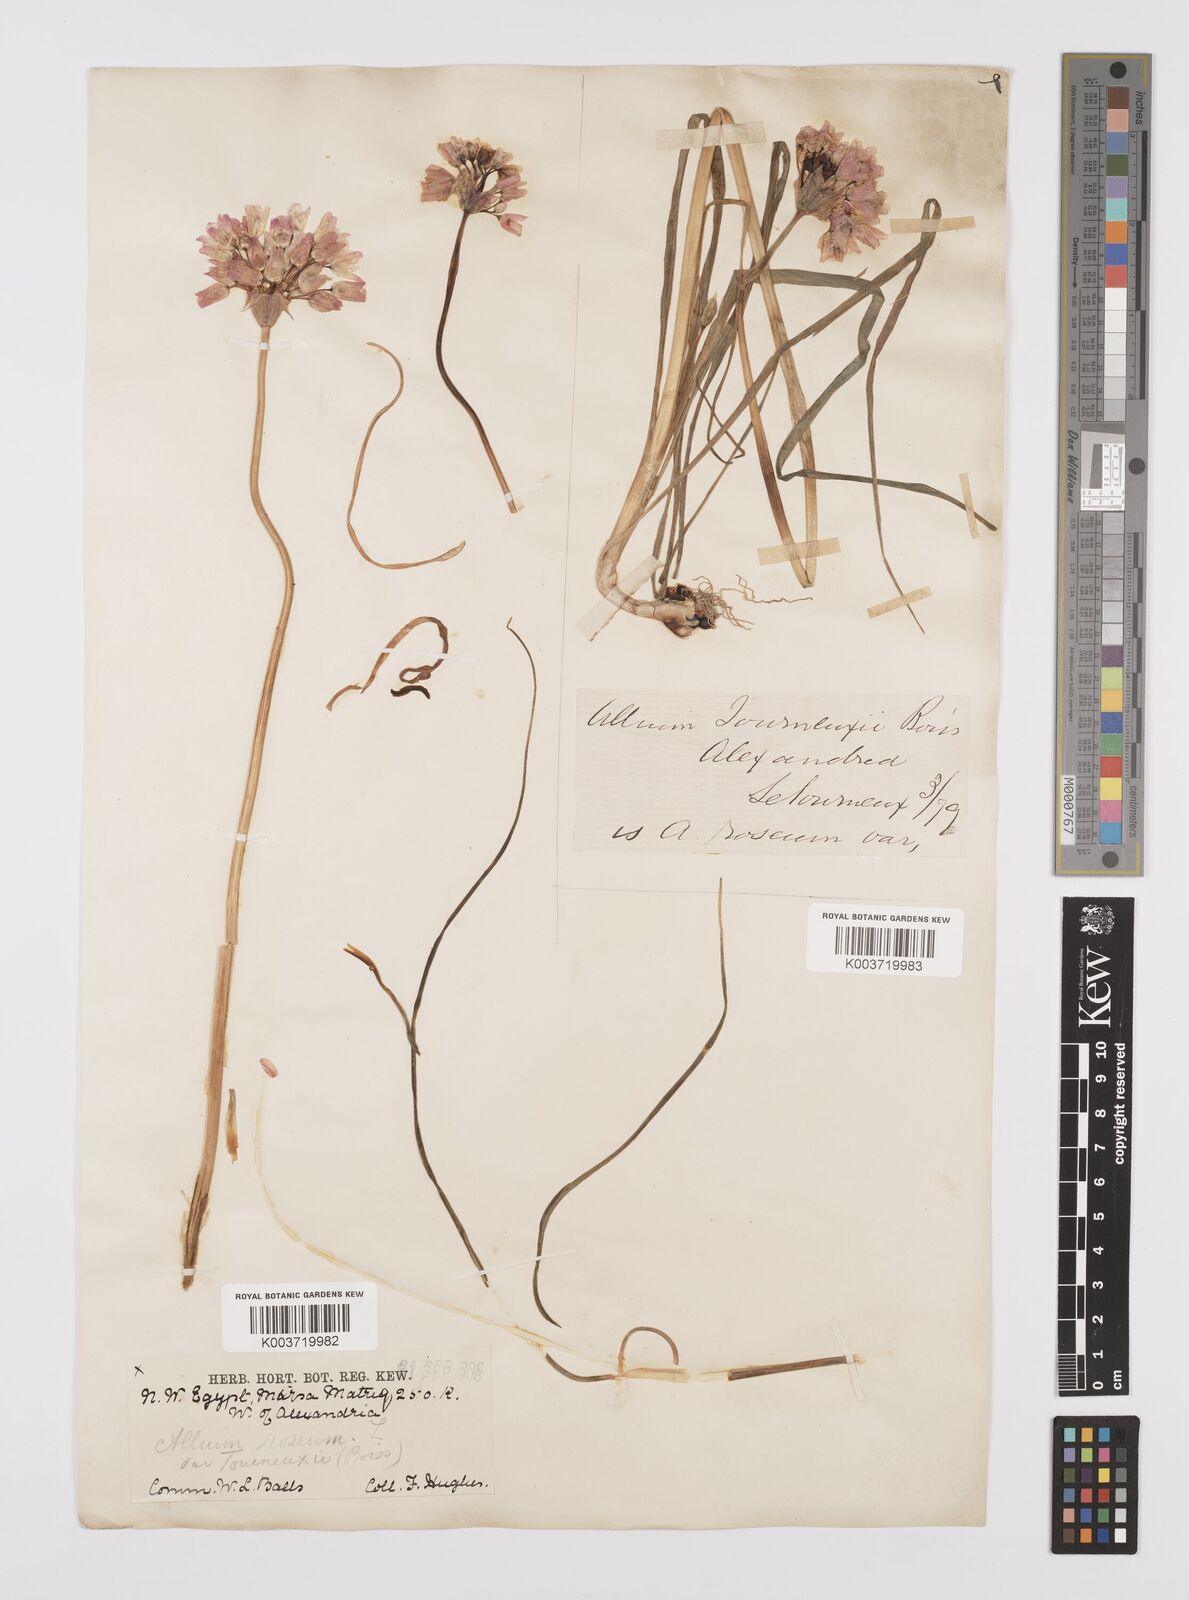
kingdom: Plantae
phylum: Tracheophyta
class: Liliopsida
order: Asparagales
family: Amaryllidaceae
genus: Allium
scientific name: Allium roseum
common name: Rosy garlic
